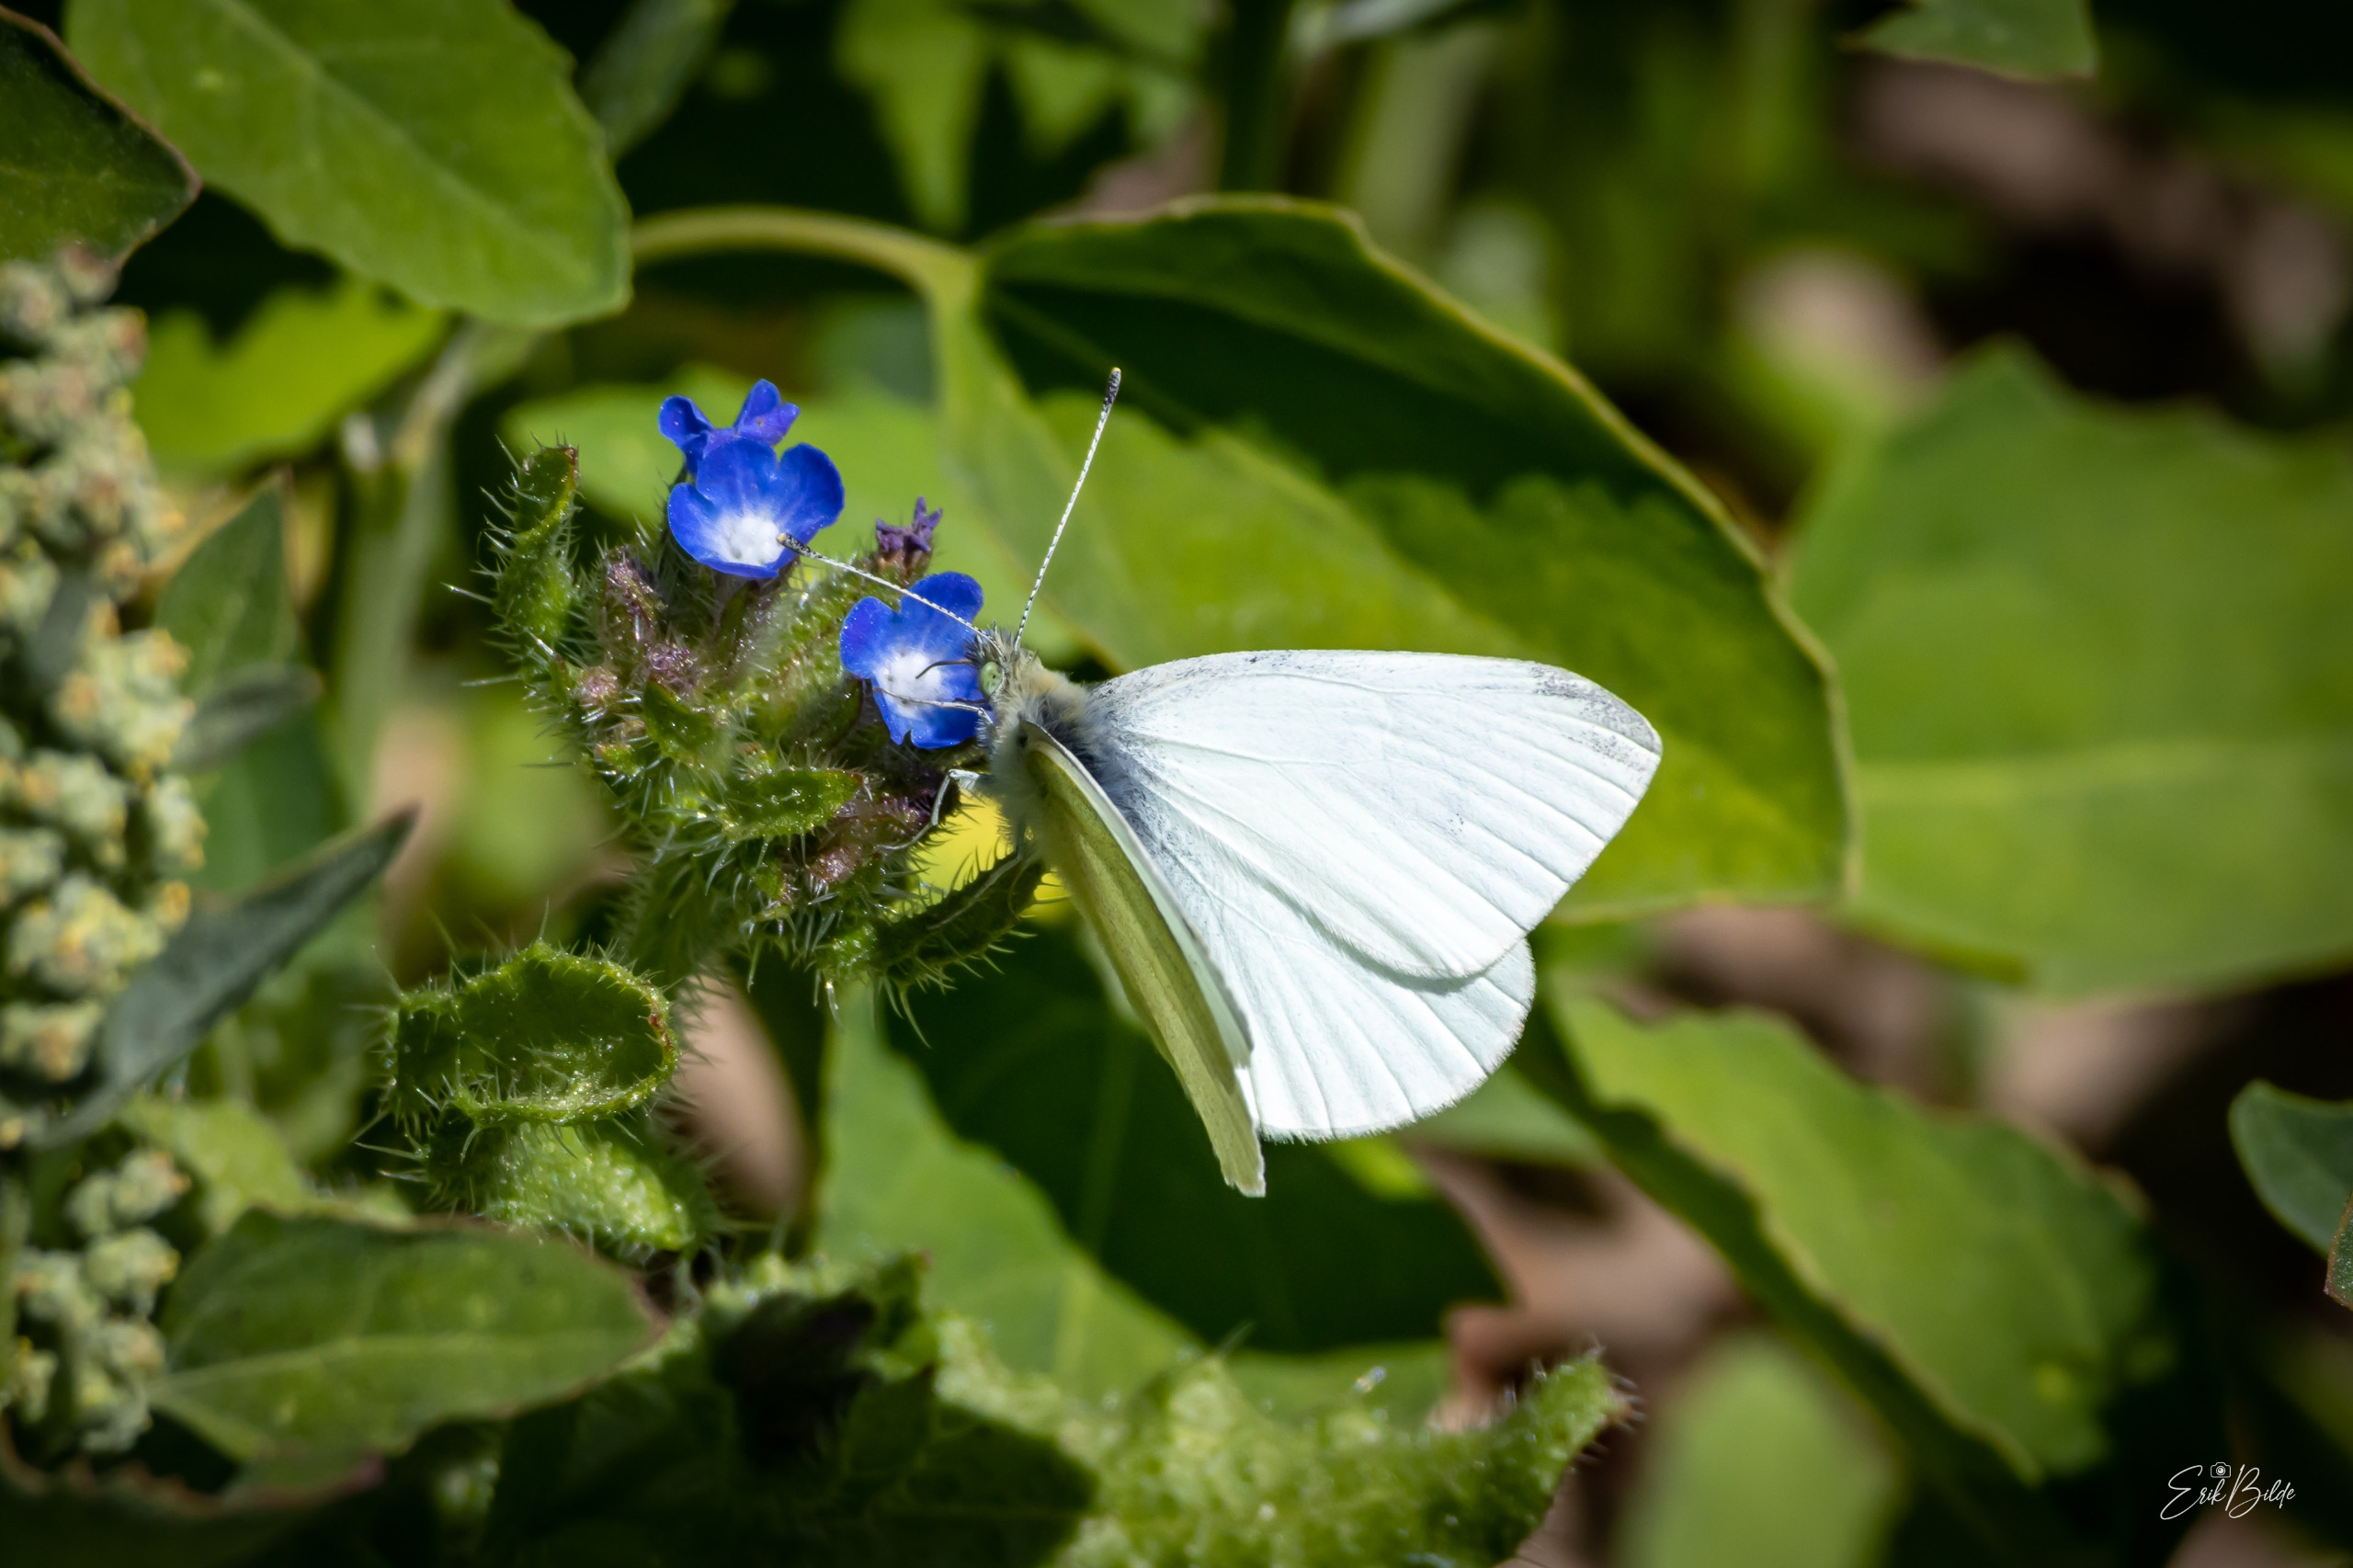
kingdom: Animalia
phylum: Arthropoda
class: Insecta
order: Lepidoptera
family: Pieridae
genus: Pieris
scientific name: Pieris napi
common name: Grønåret kålsommerfugl
